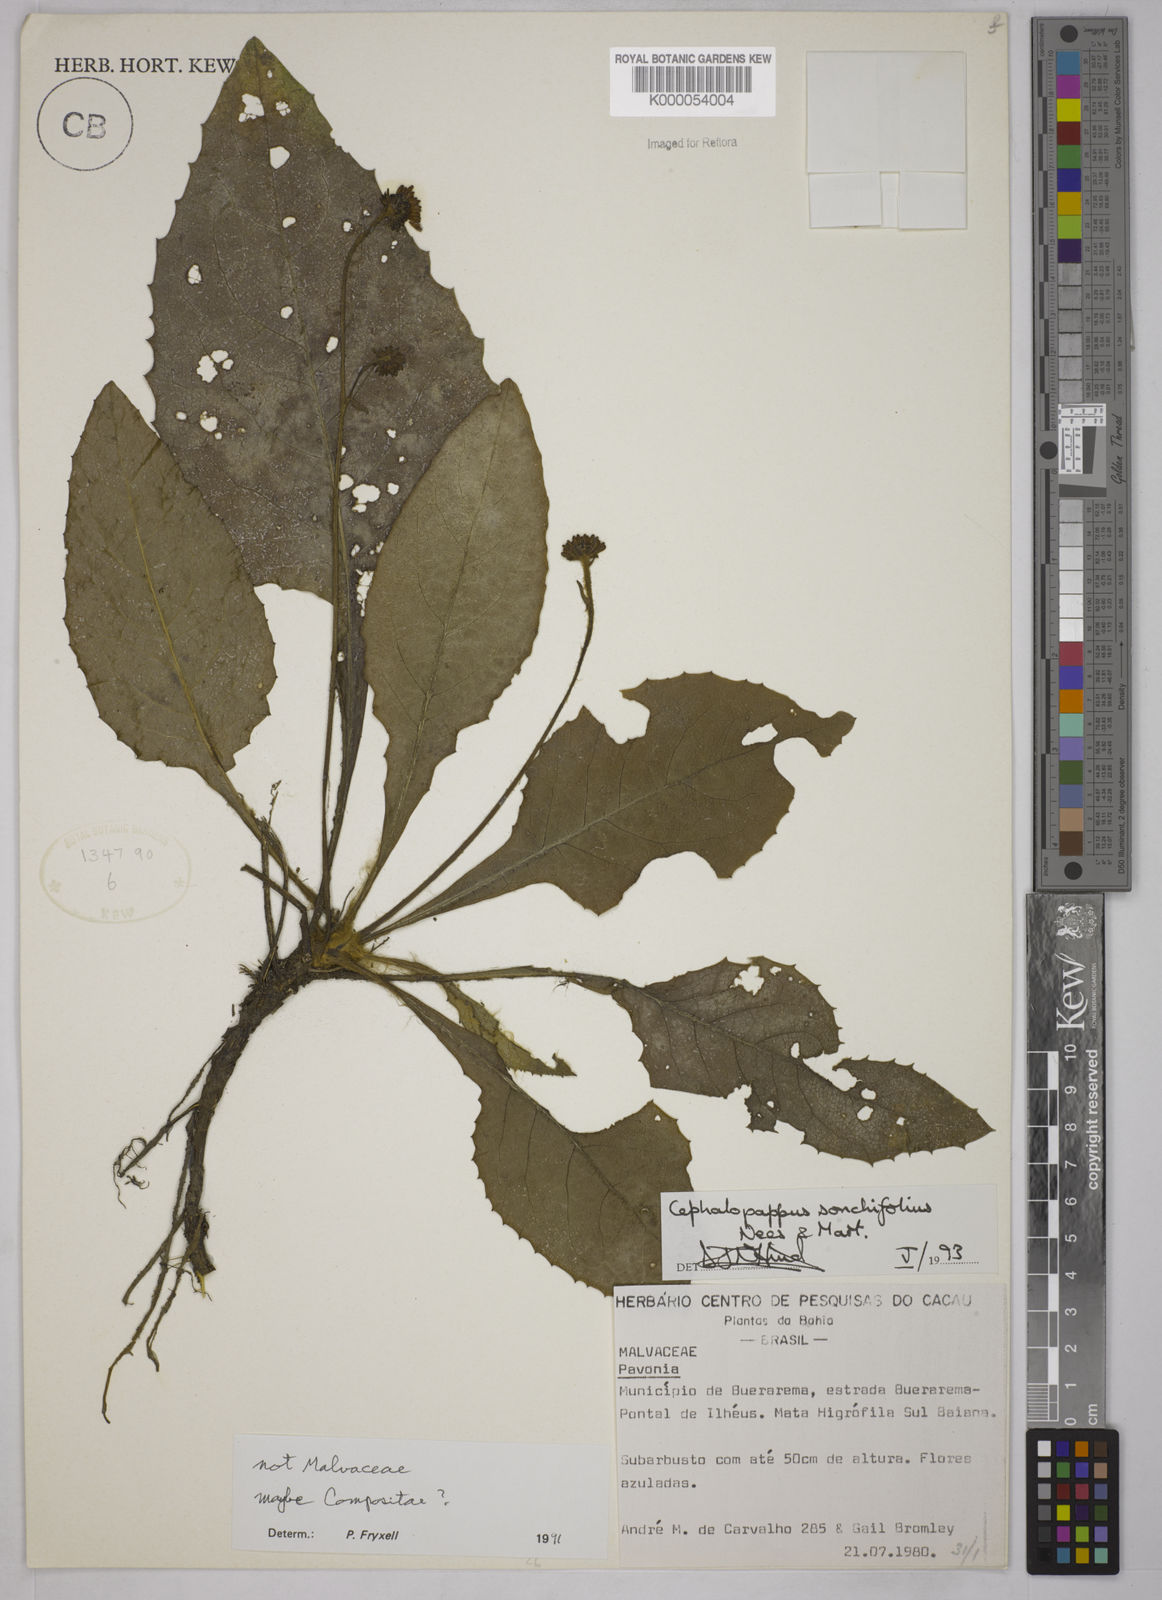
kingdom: Plantae
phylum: Tracheophyta
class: Magnoliopsida
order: Asterales
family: Asteraceae
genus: Cephalopappus
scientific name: Cephalopappus sonchifolius
